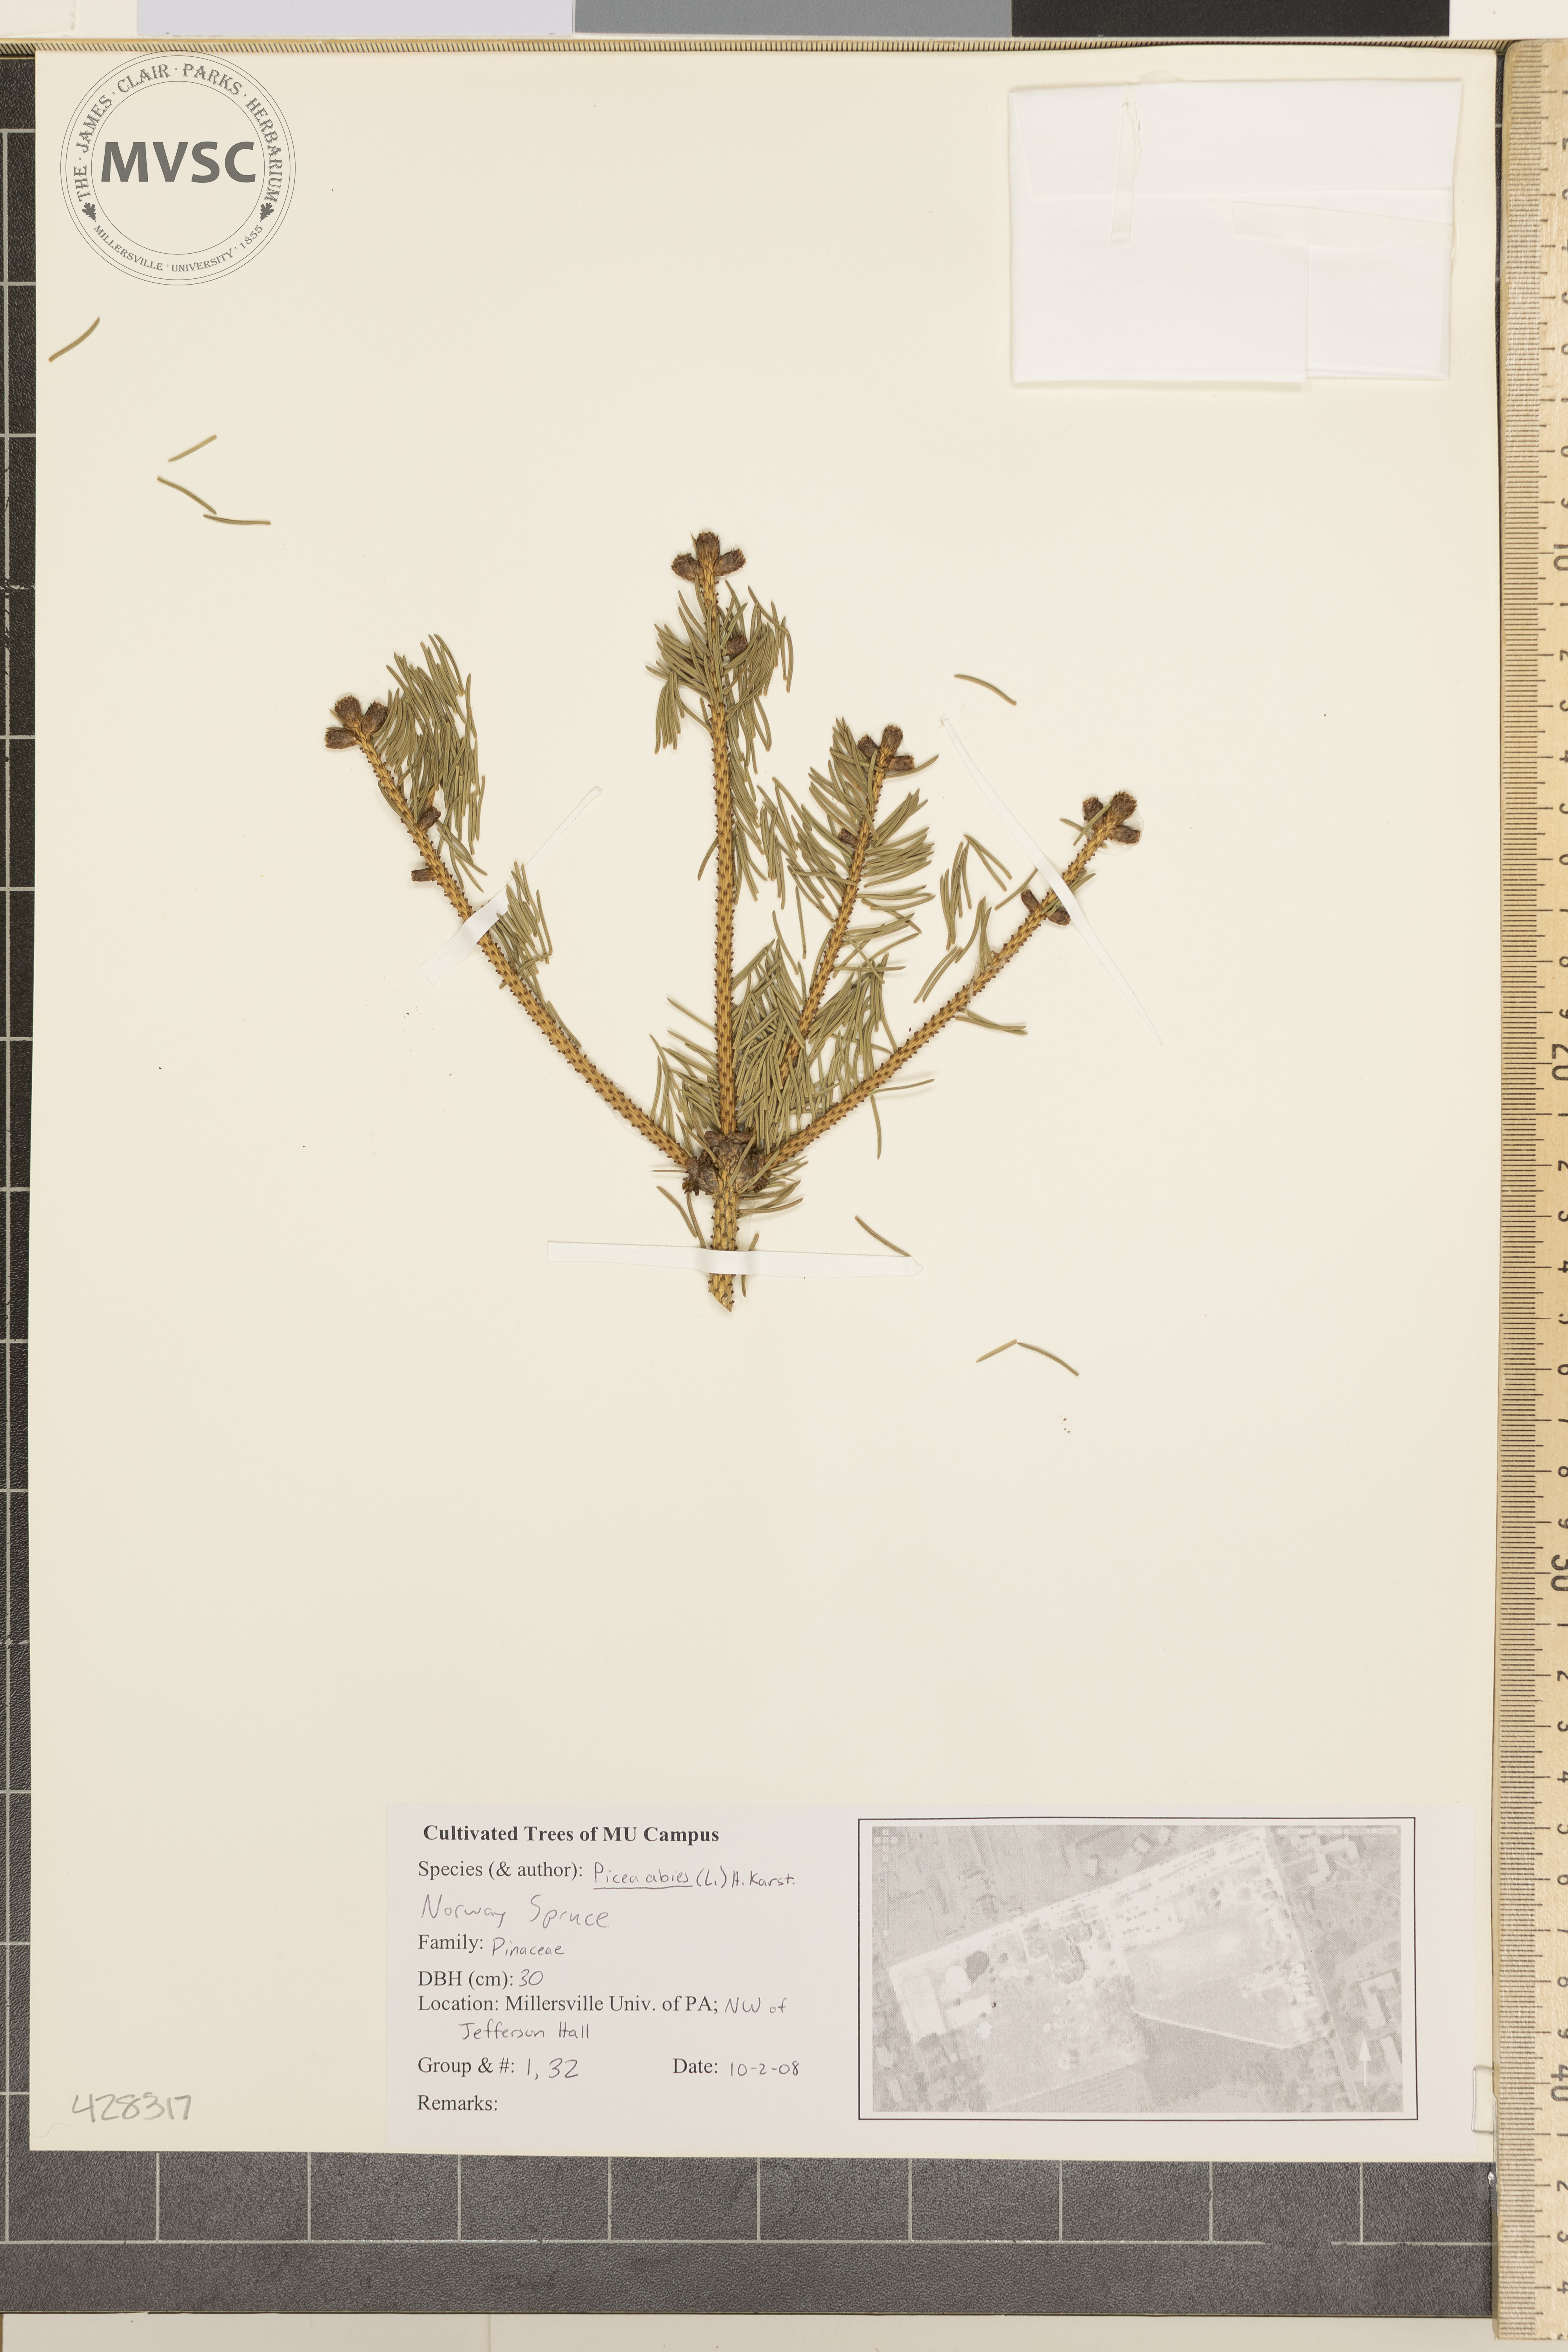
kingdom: Plantae
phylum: Tracheophyta
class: Pinopsida
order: Pinales
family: Pinaceae
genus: Picea
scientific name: Picea abies
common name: Norway Spruce
